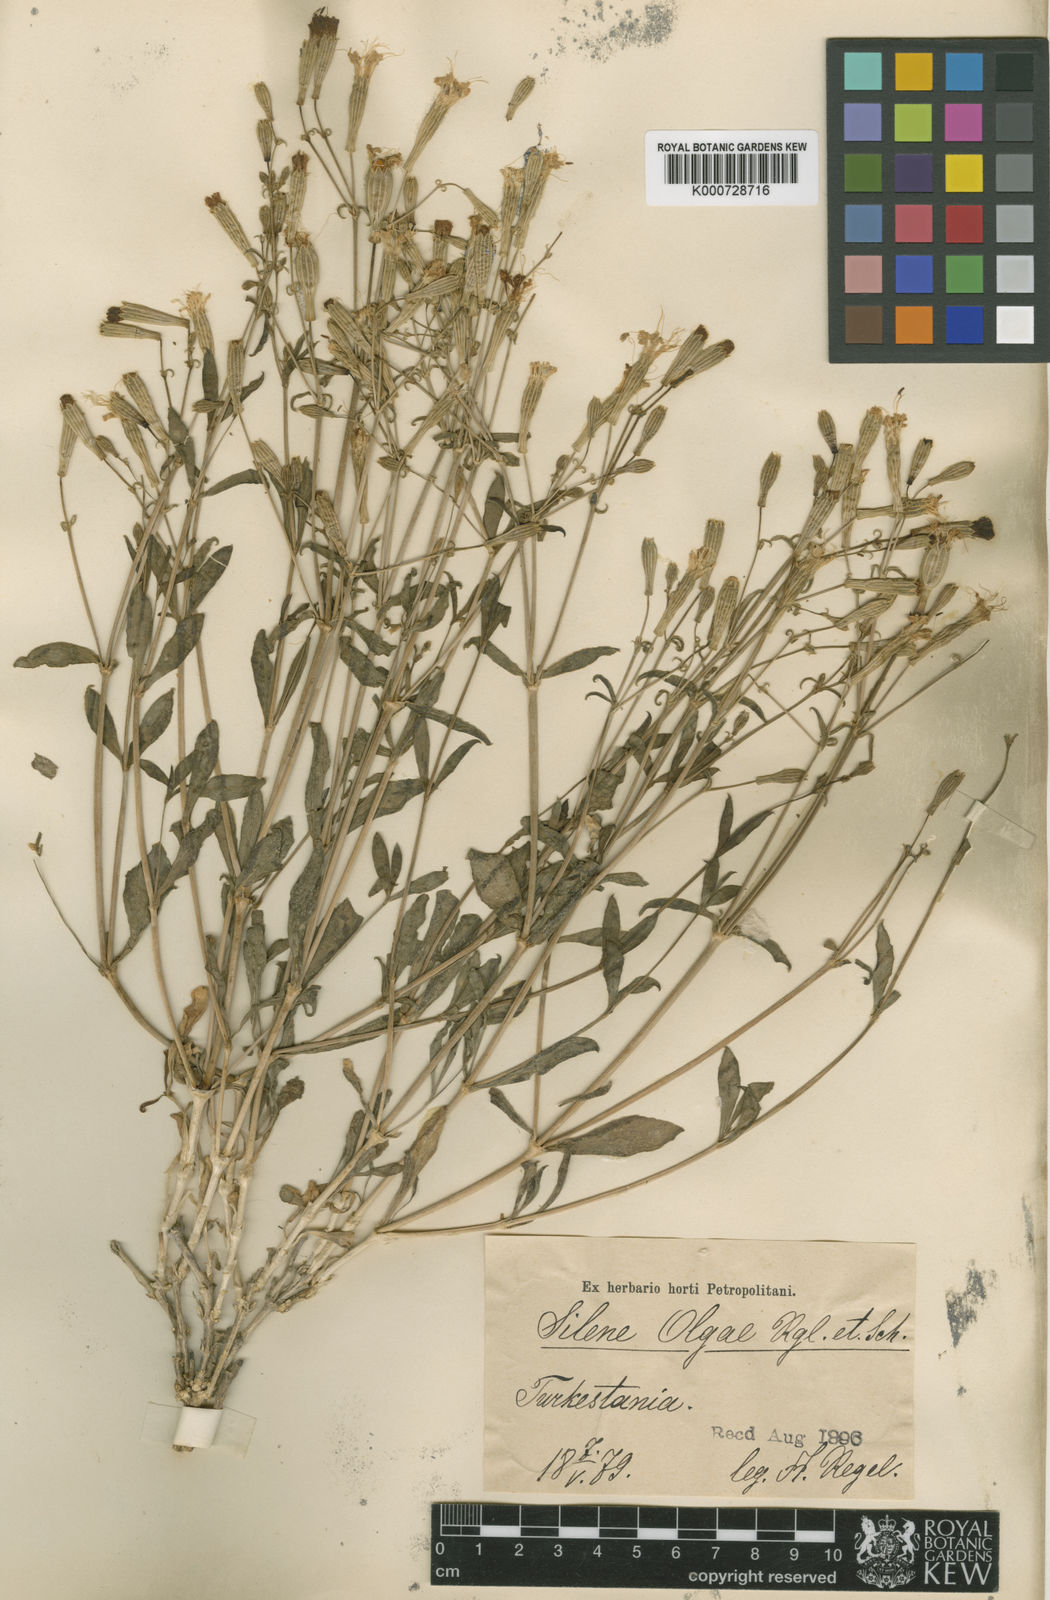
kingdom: Plantae
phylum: Tracheophyta
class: Magnoliopsida
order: Caryophyllales
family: Caryophyllaceae
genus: Silene
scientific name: Silene
